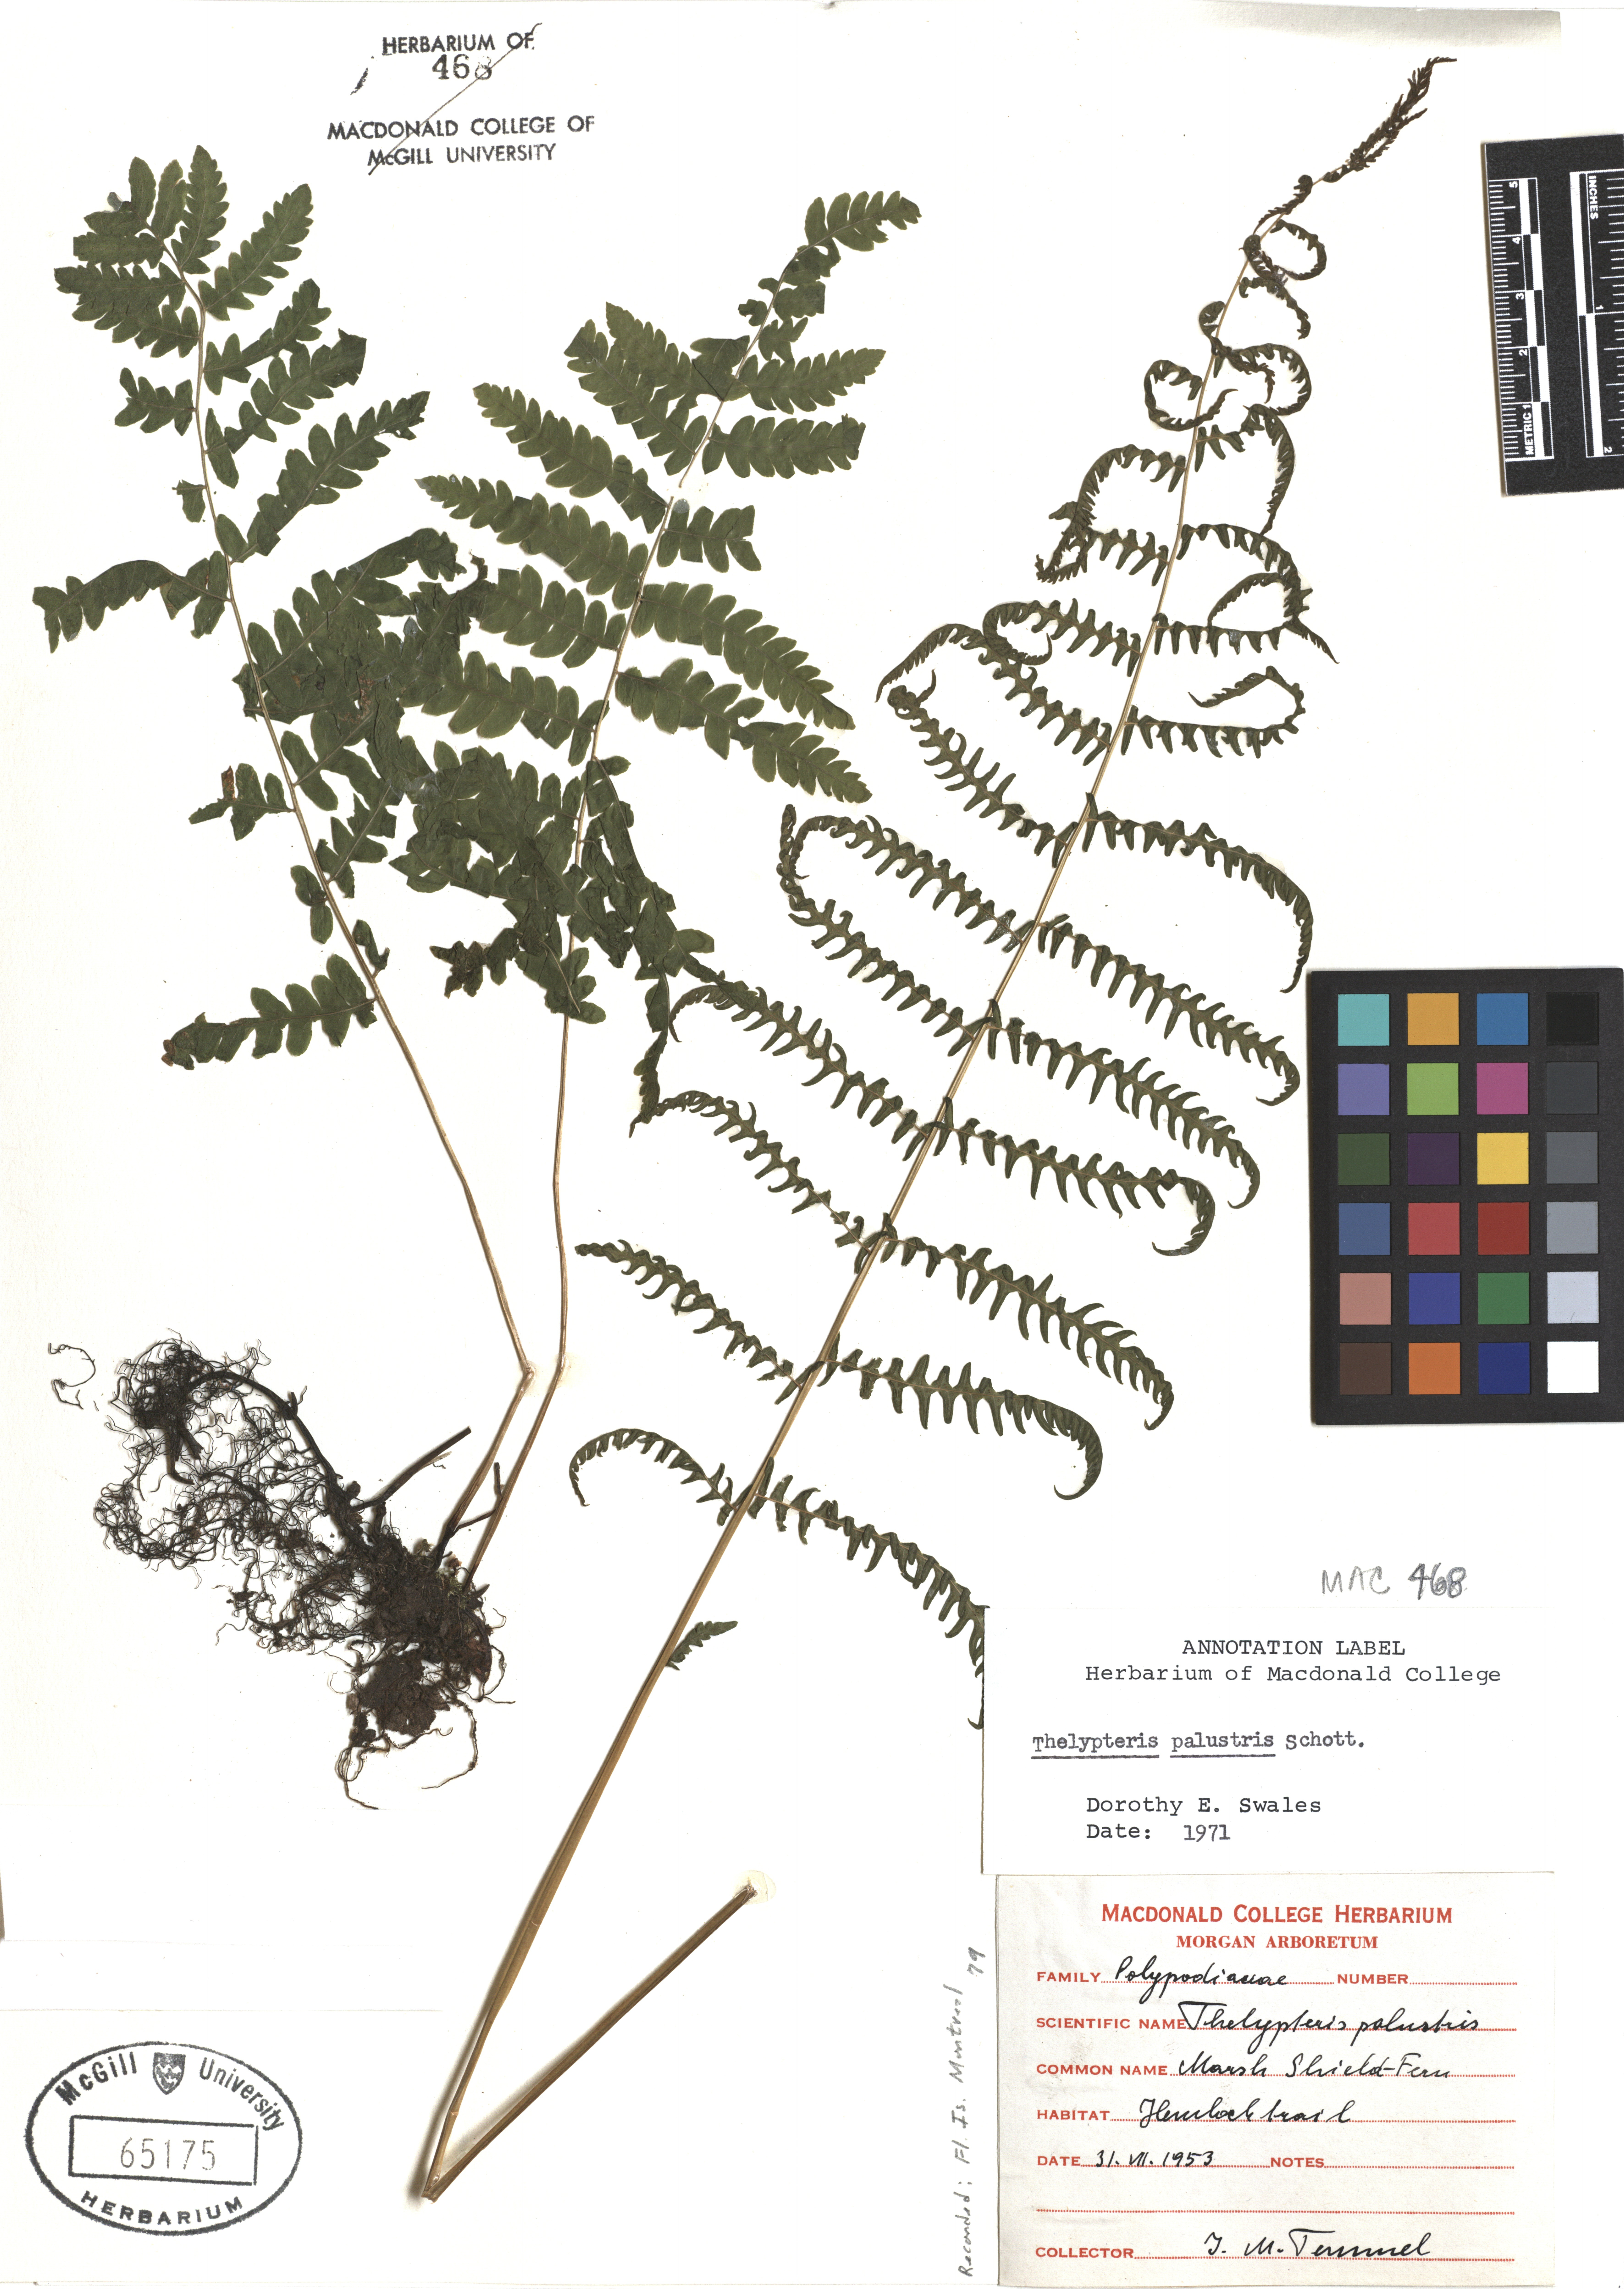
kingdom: Plantae
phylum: Tracheophyta
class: Polypodiopsida
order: Polypodiales
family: Thelypteridaceae
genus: Thelypteris
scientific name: Thelypteris palustris
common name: Marsh fern
